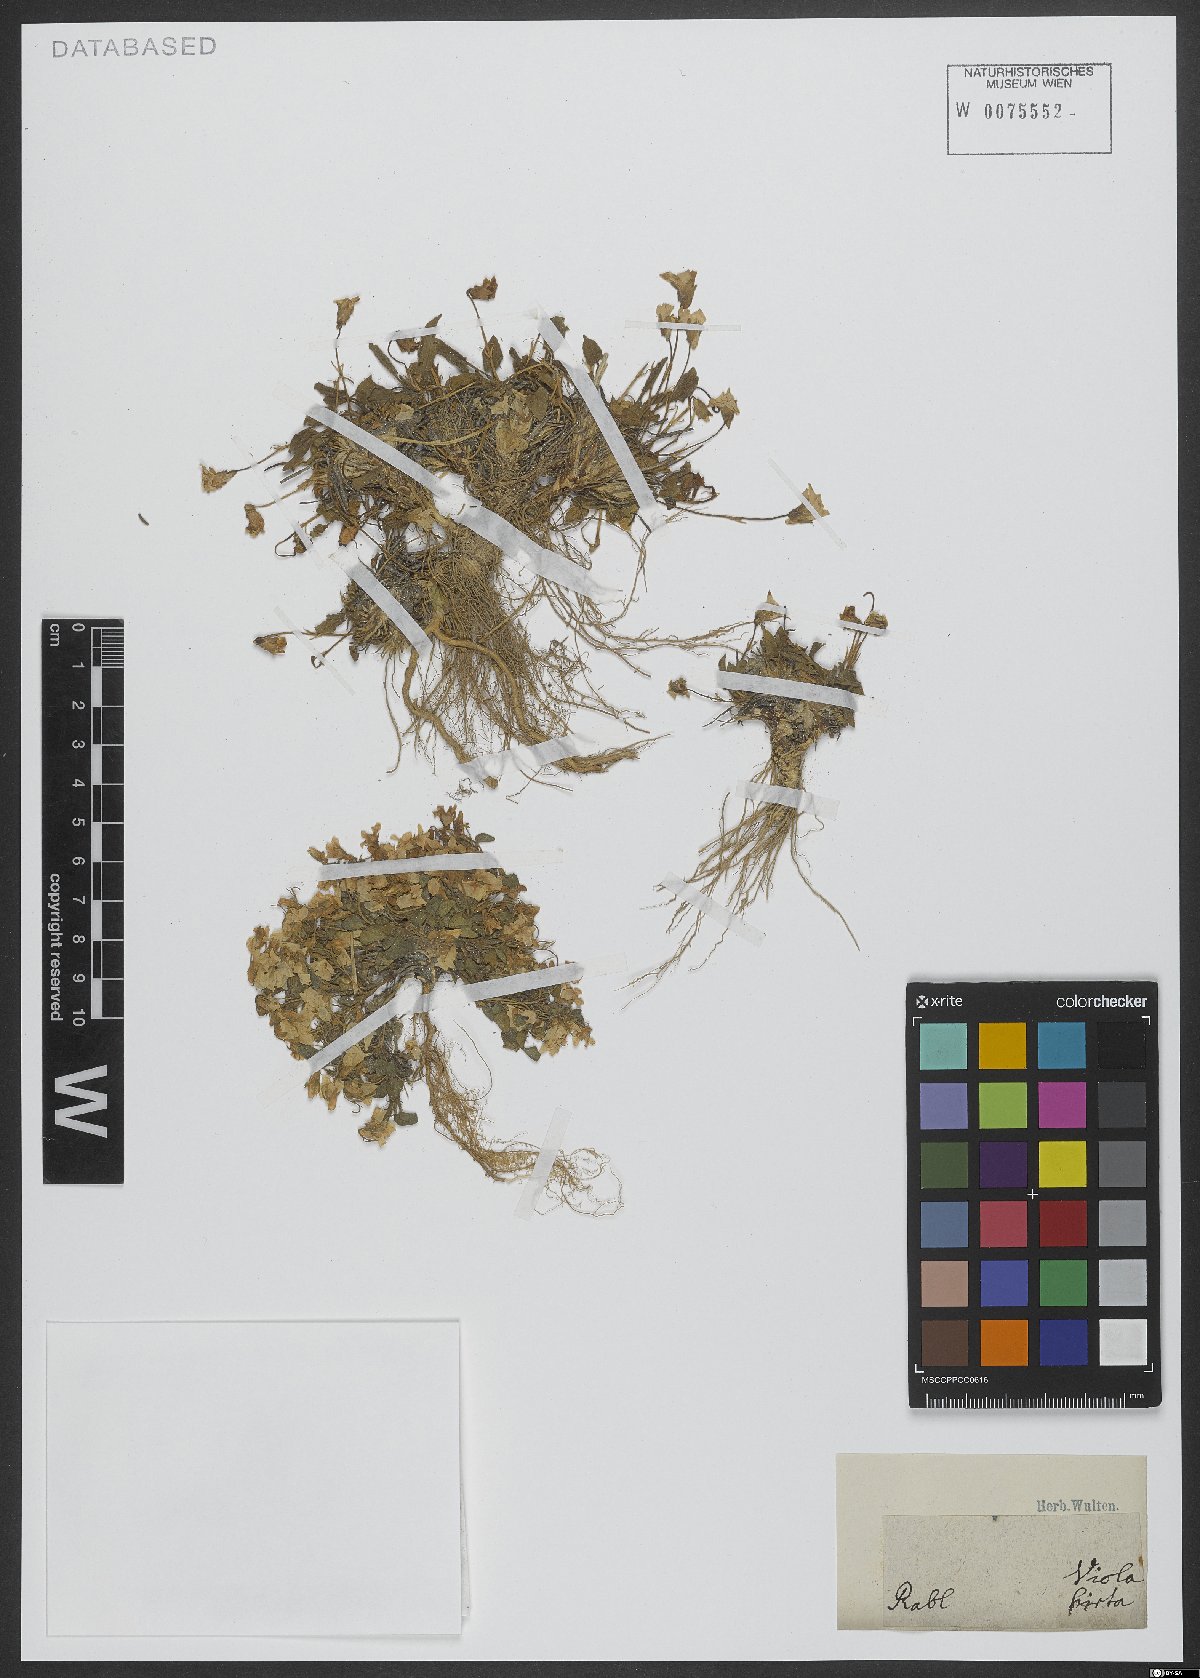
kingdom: Plantae
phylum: Tracheophyta
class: Magnoliopsida
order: Malpighiales
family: Violaceae
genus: Viola
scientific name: Viola hirta
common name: Hairy violet
